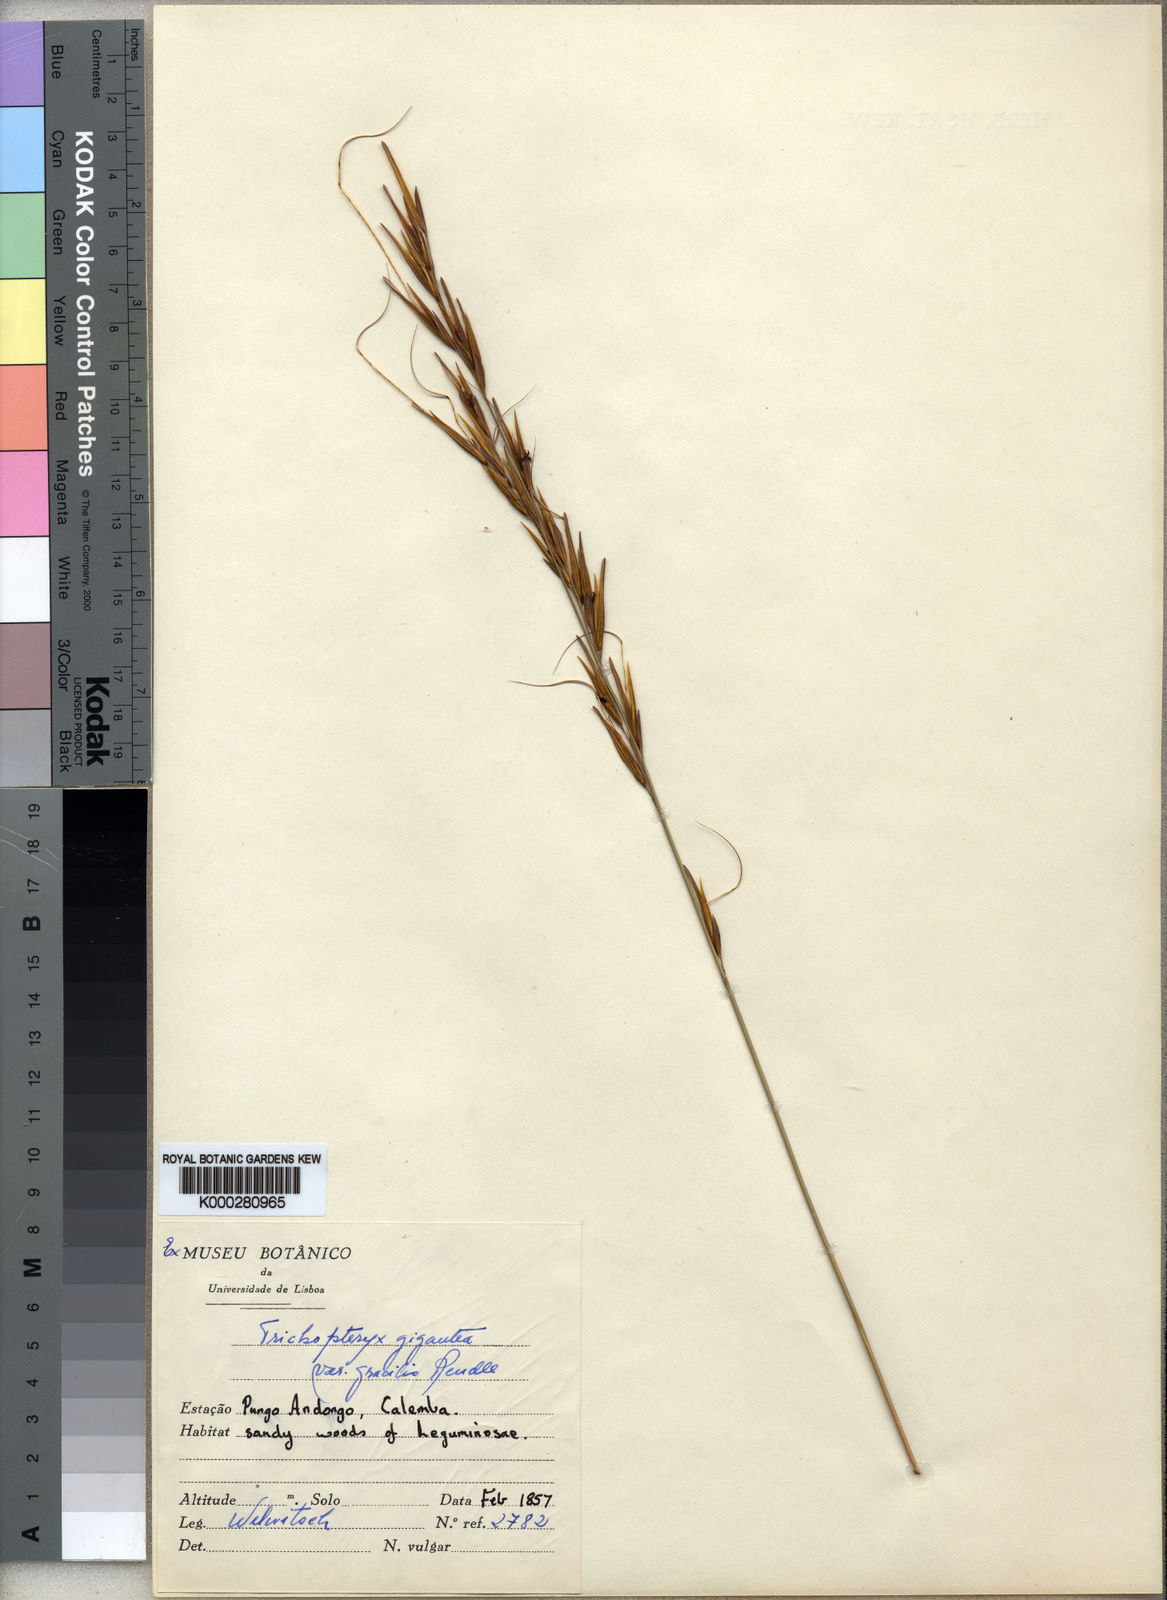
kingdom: Plantae
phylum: Tracheophyta
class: Liliopsida
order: Poales
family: Poaceae
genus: Tristachya
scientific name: Tristachya superba
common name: Giant trident grass
